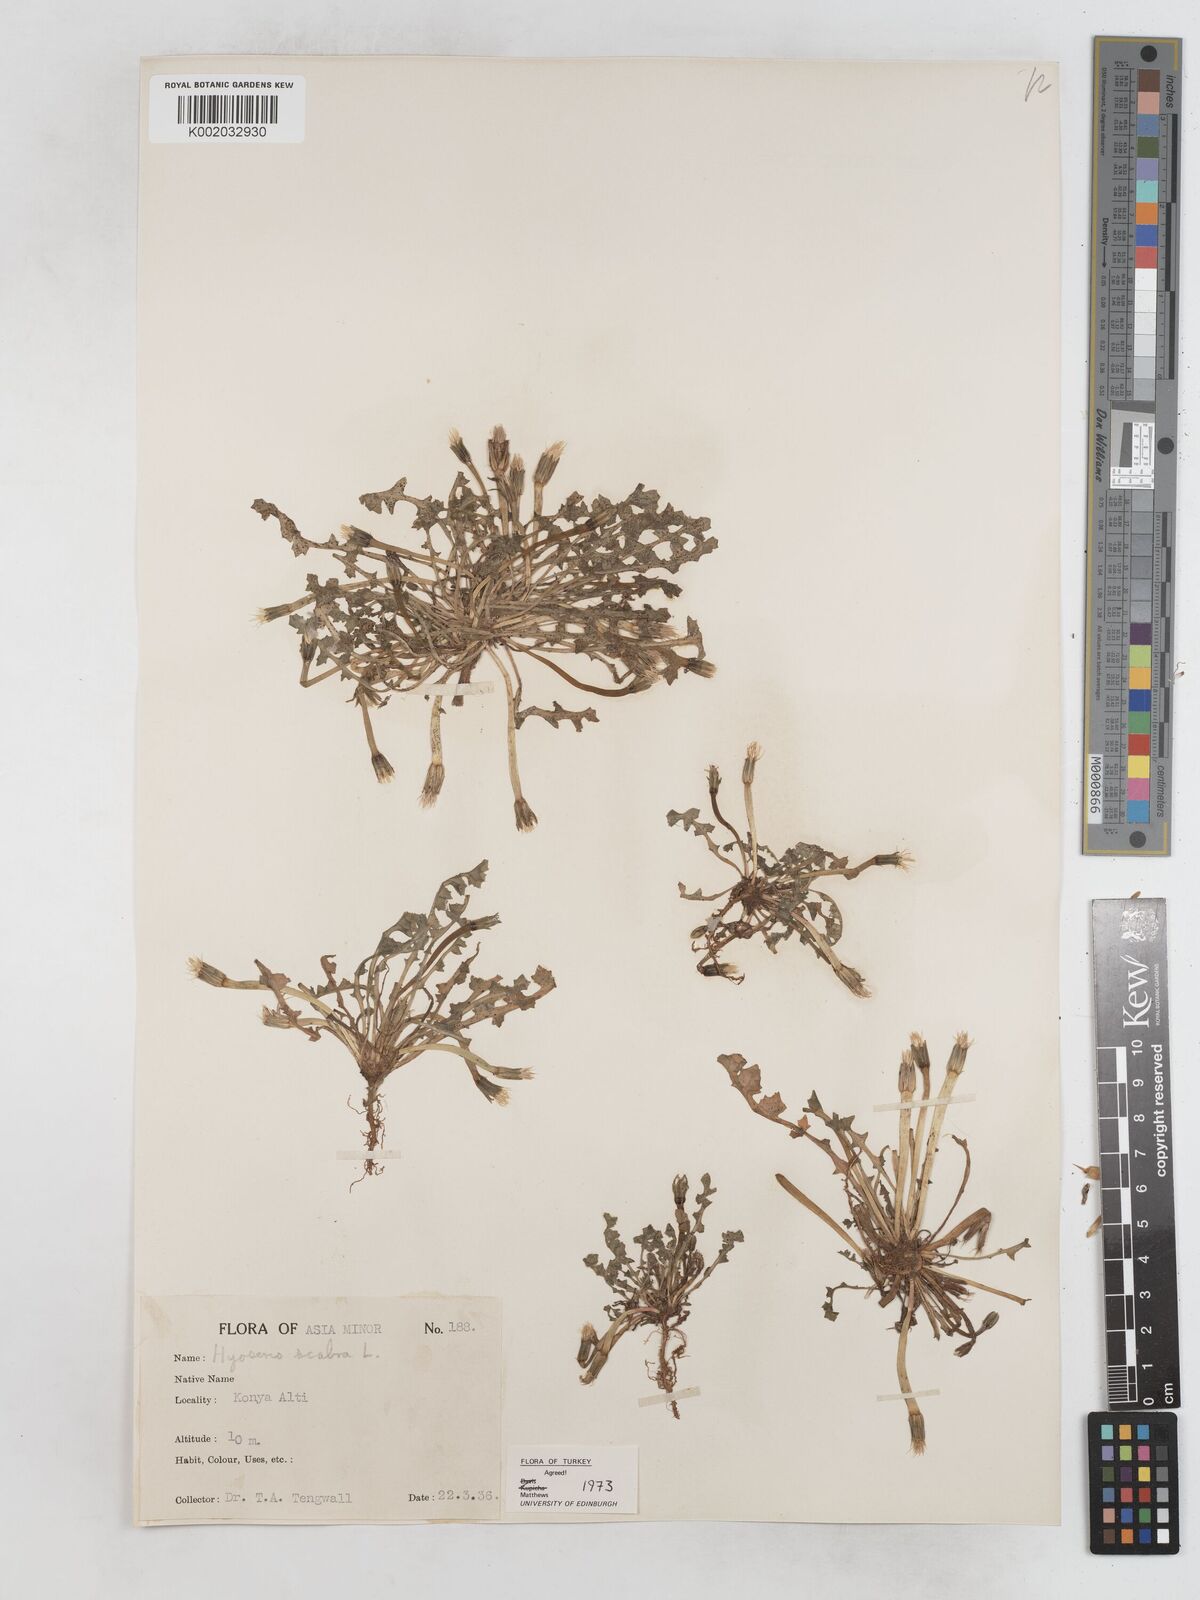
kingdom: Plantae
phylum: Tracheophyta
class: Magnoliopsida
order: Asterales
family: Asteraceae
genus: Hyoseris
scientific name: Hyoseris scabra
